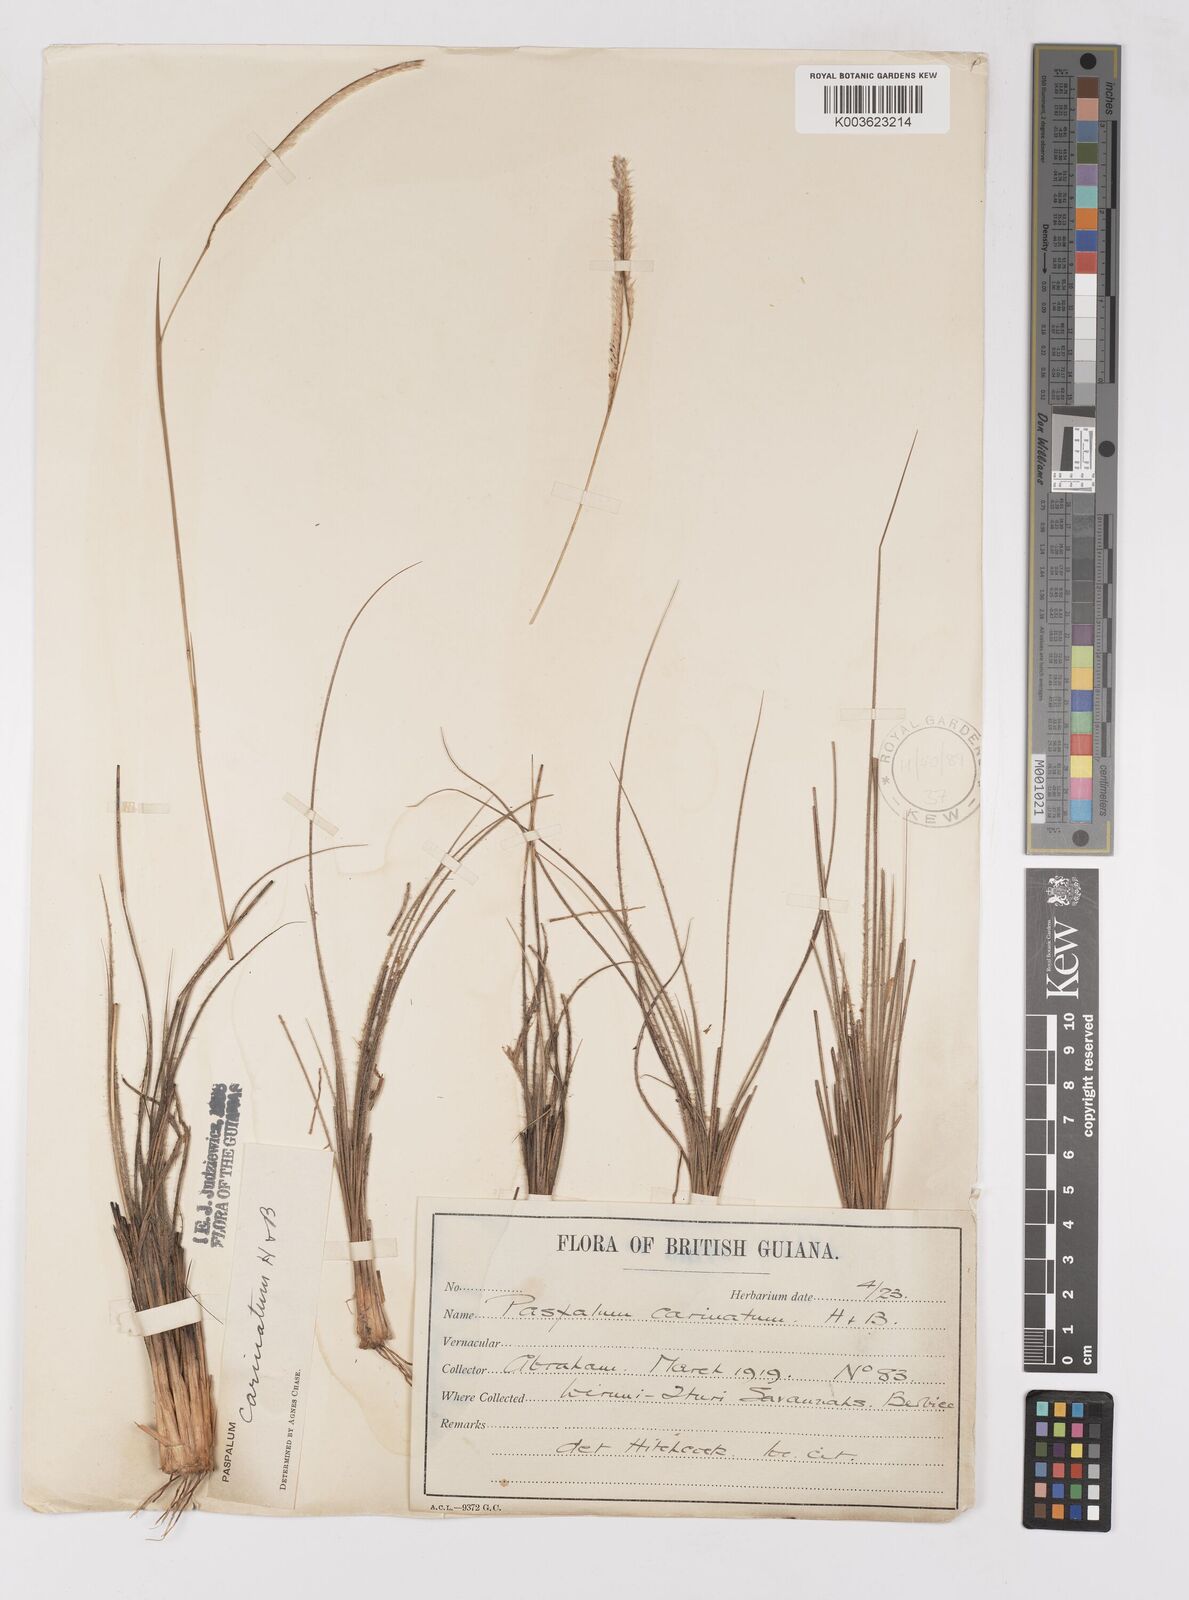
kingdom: Plantae
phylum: Tracheophyta
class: Liliopsida
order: Poales
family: Poaceae
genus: Paspalum
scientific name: Paspalum carinatum
